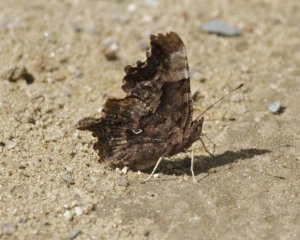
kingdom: Animalia
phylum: Arthropoda
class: Insecta
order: Lepidoptera
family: Nymphalidae
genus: Polygonia
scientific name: Polygonia faunus
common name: Green Comma
